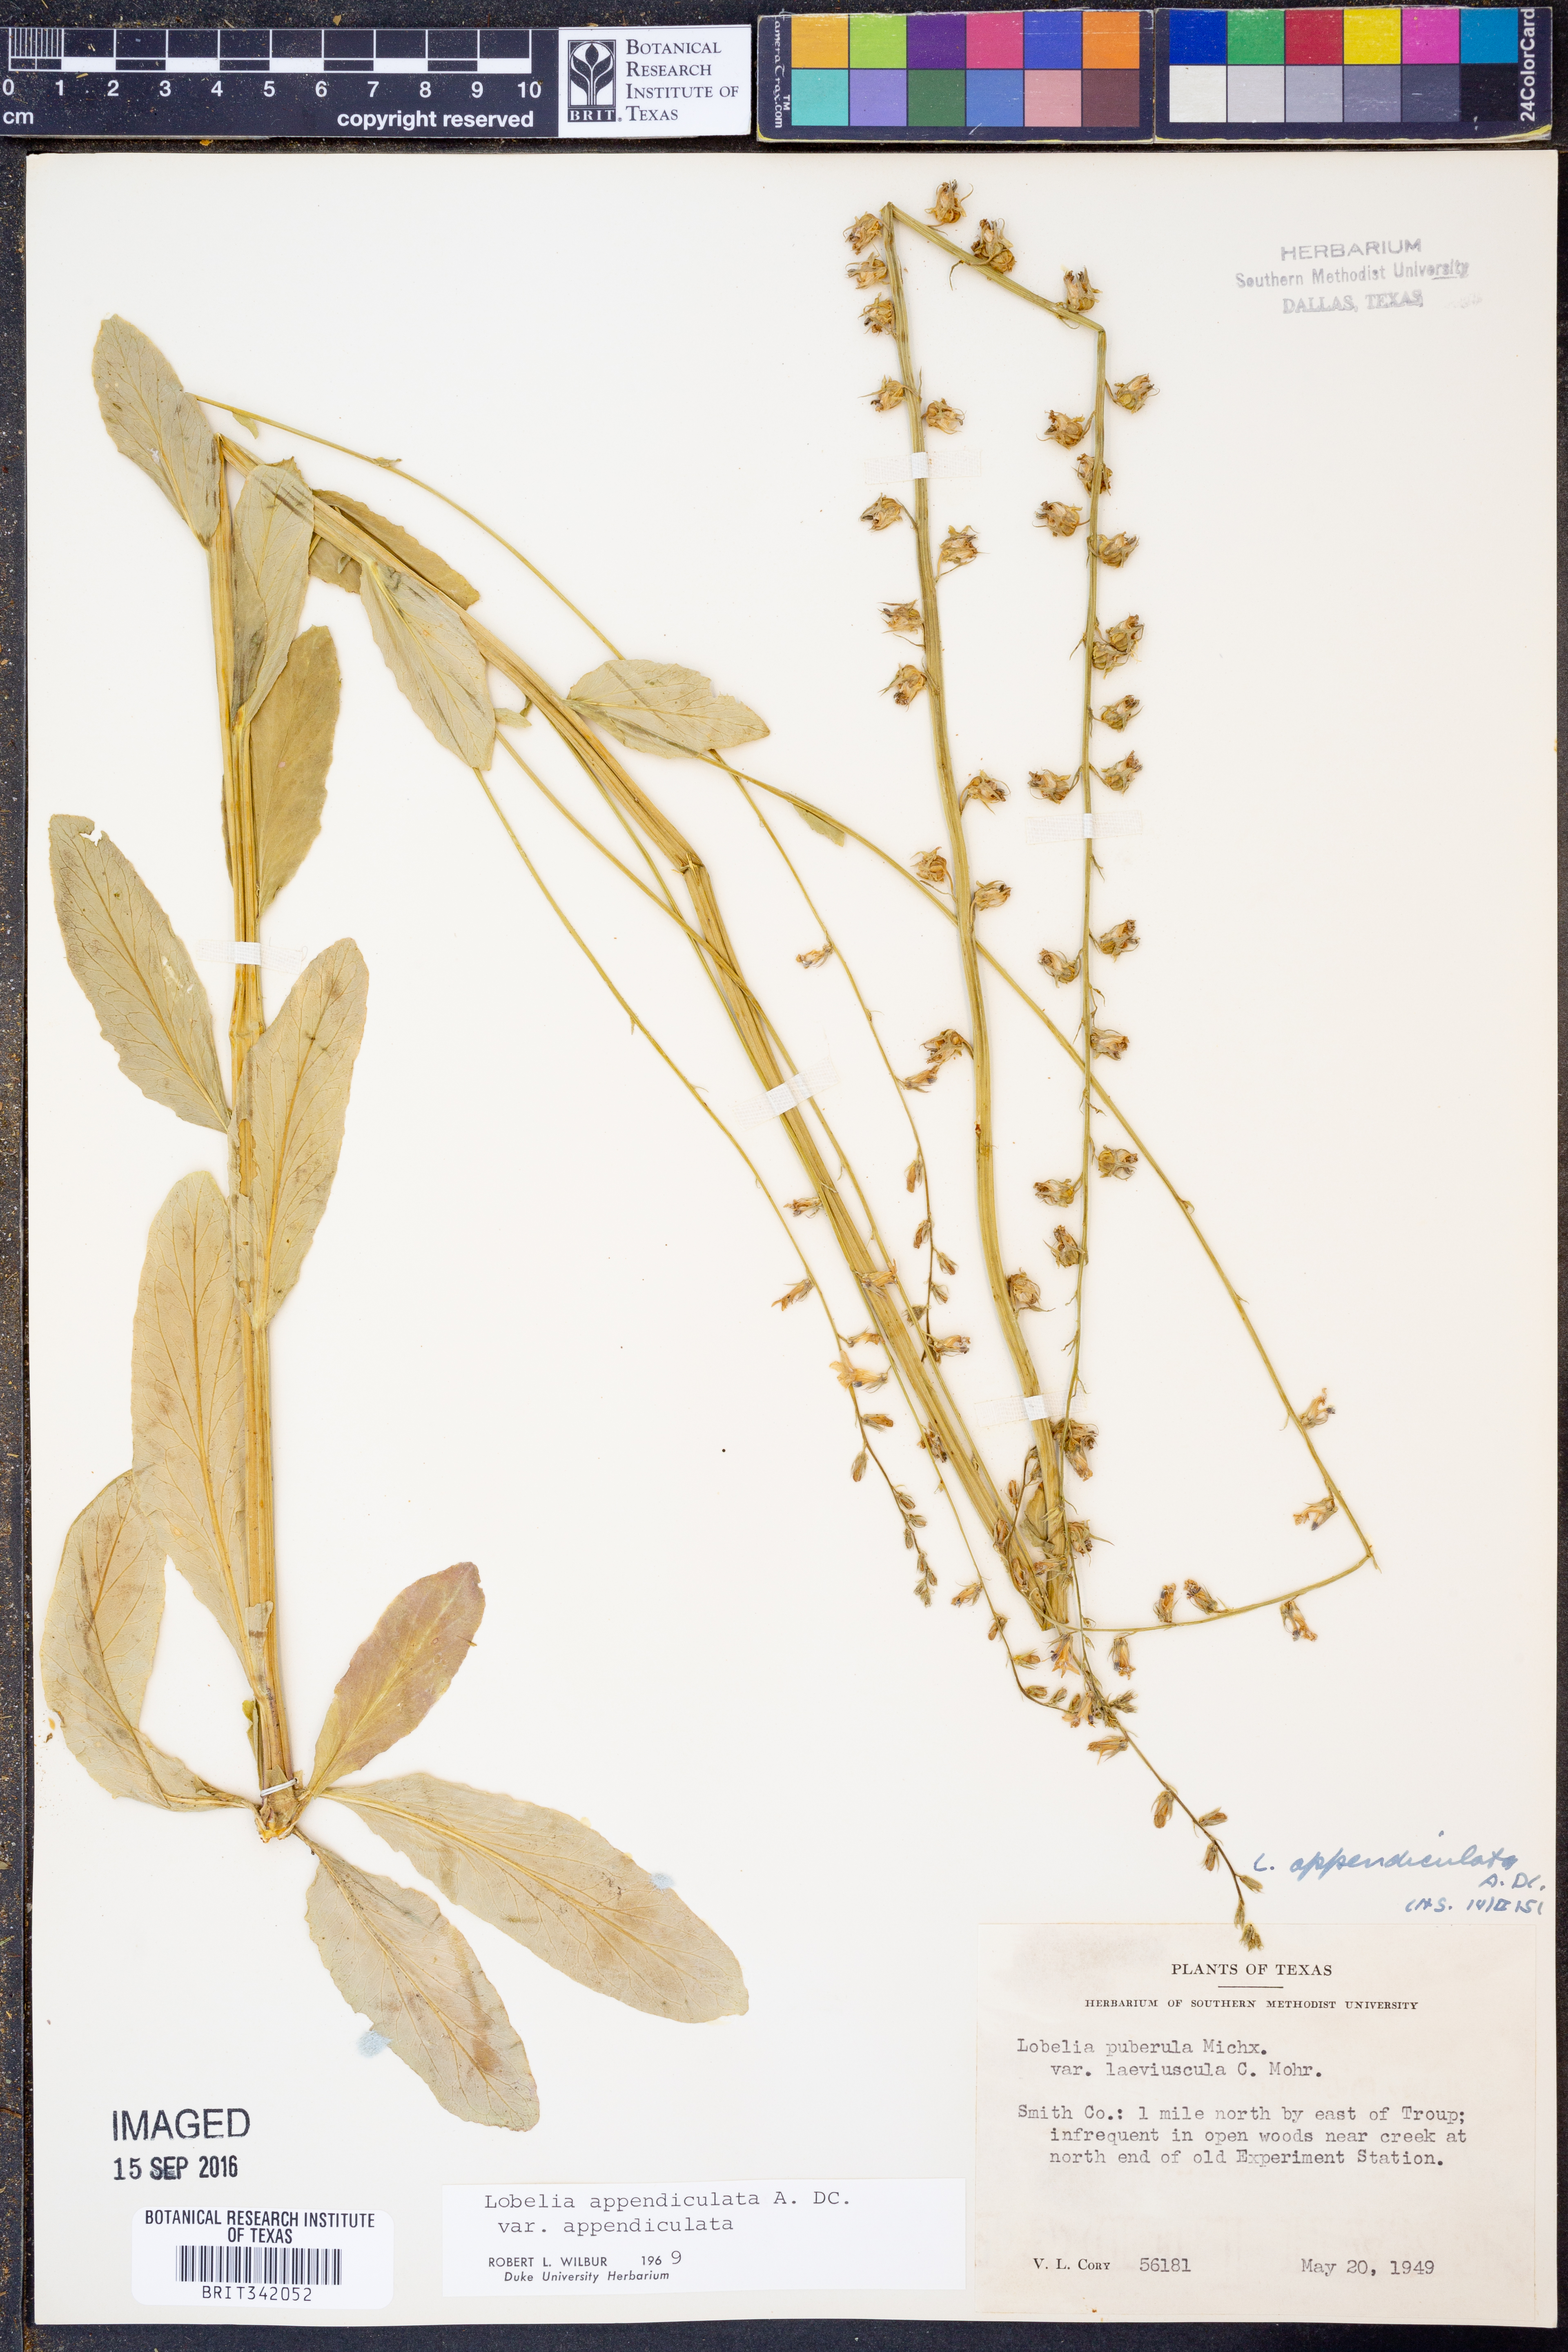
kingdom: Plantae
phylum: Tracheophyta
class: Magnoliopsida
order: Asterales
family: Campanulaceae
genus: Lobelia
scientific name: Lobelia appendiculata
